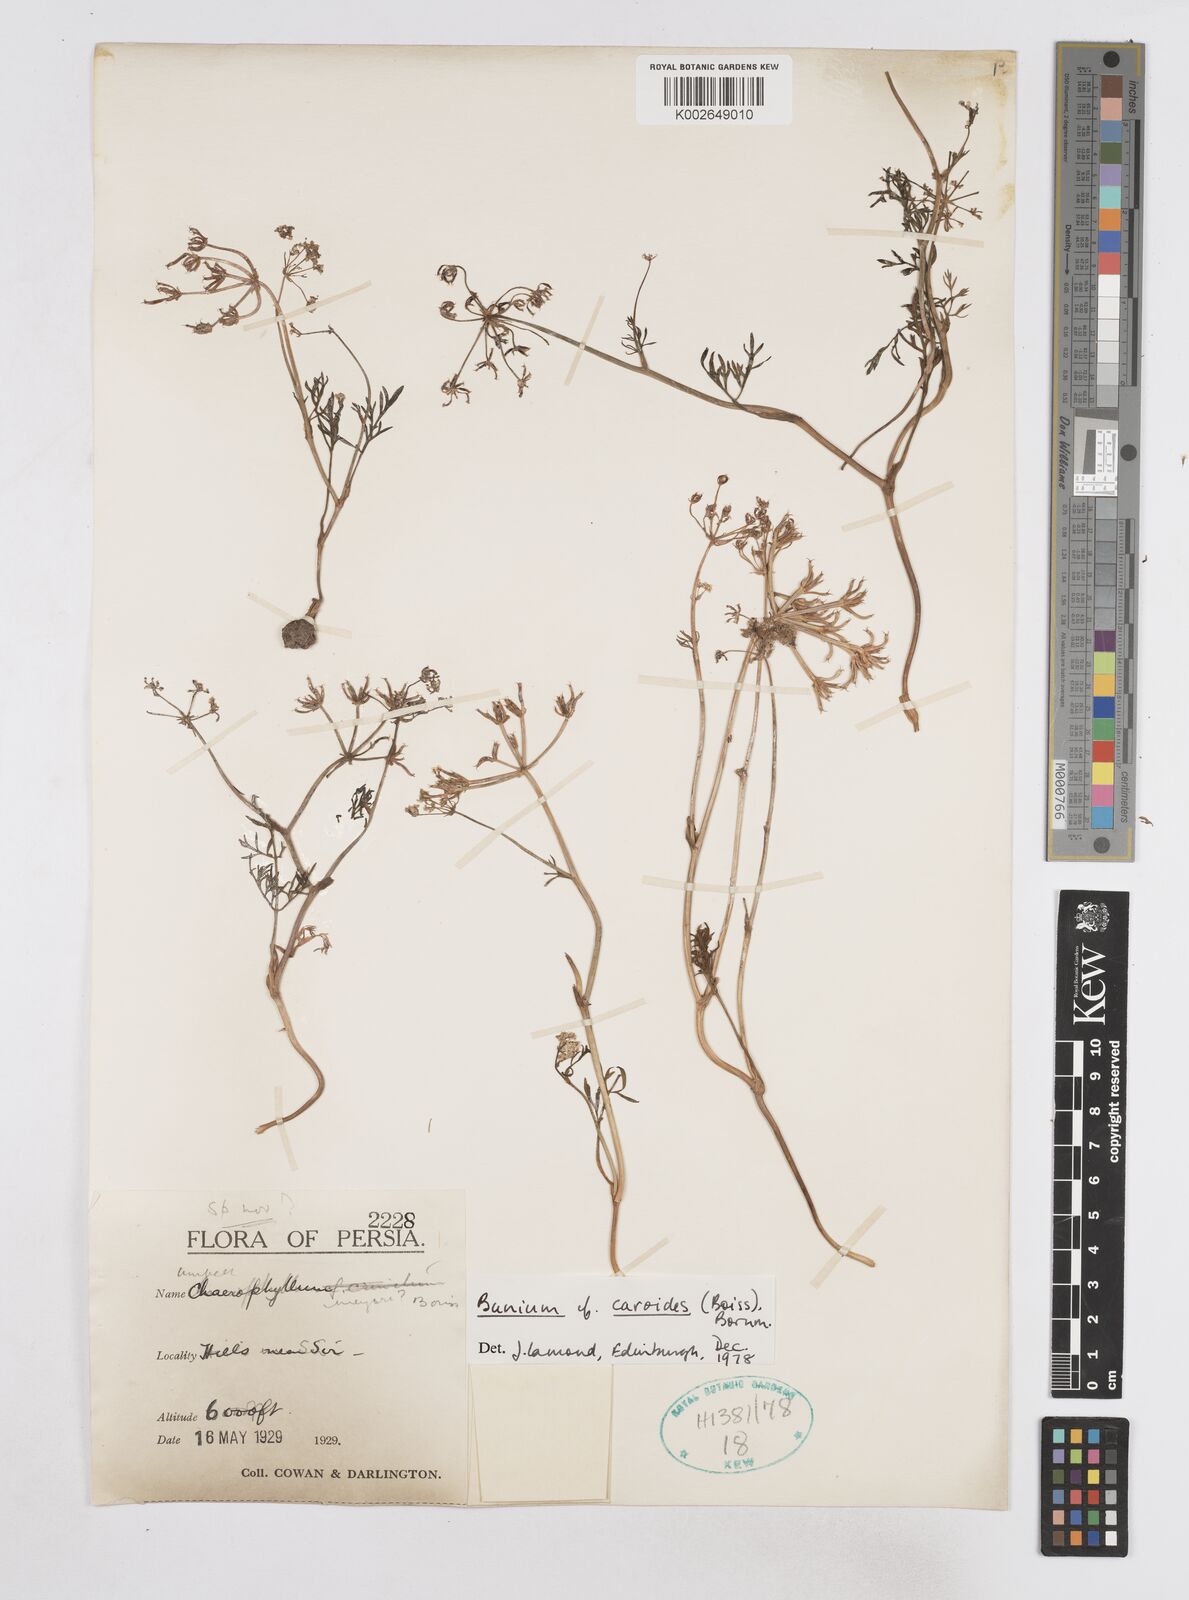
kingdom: Plantae
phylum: Tracheophyta
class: Magnoliopsida
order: Apiales
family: Apiaceae
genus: Elwendia
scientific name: Elwendia caroides
